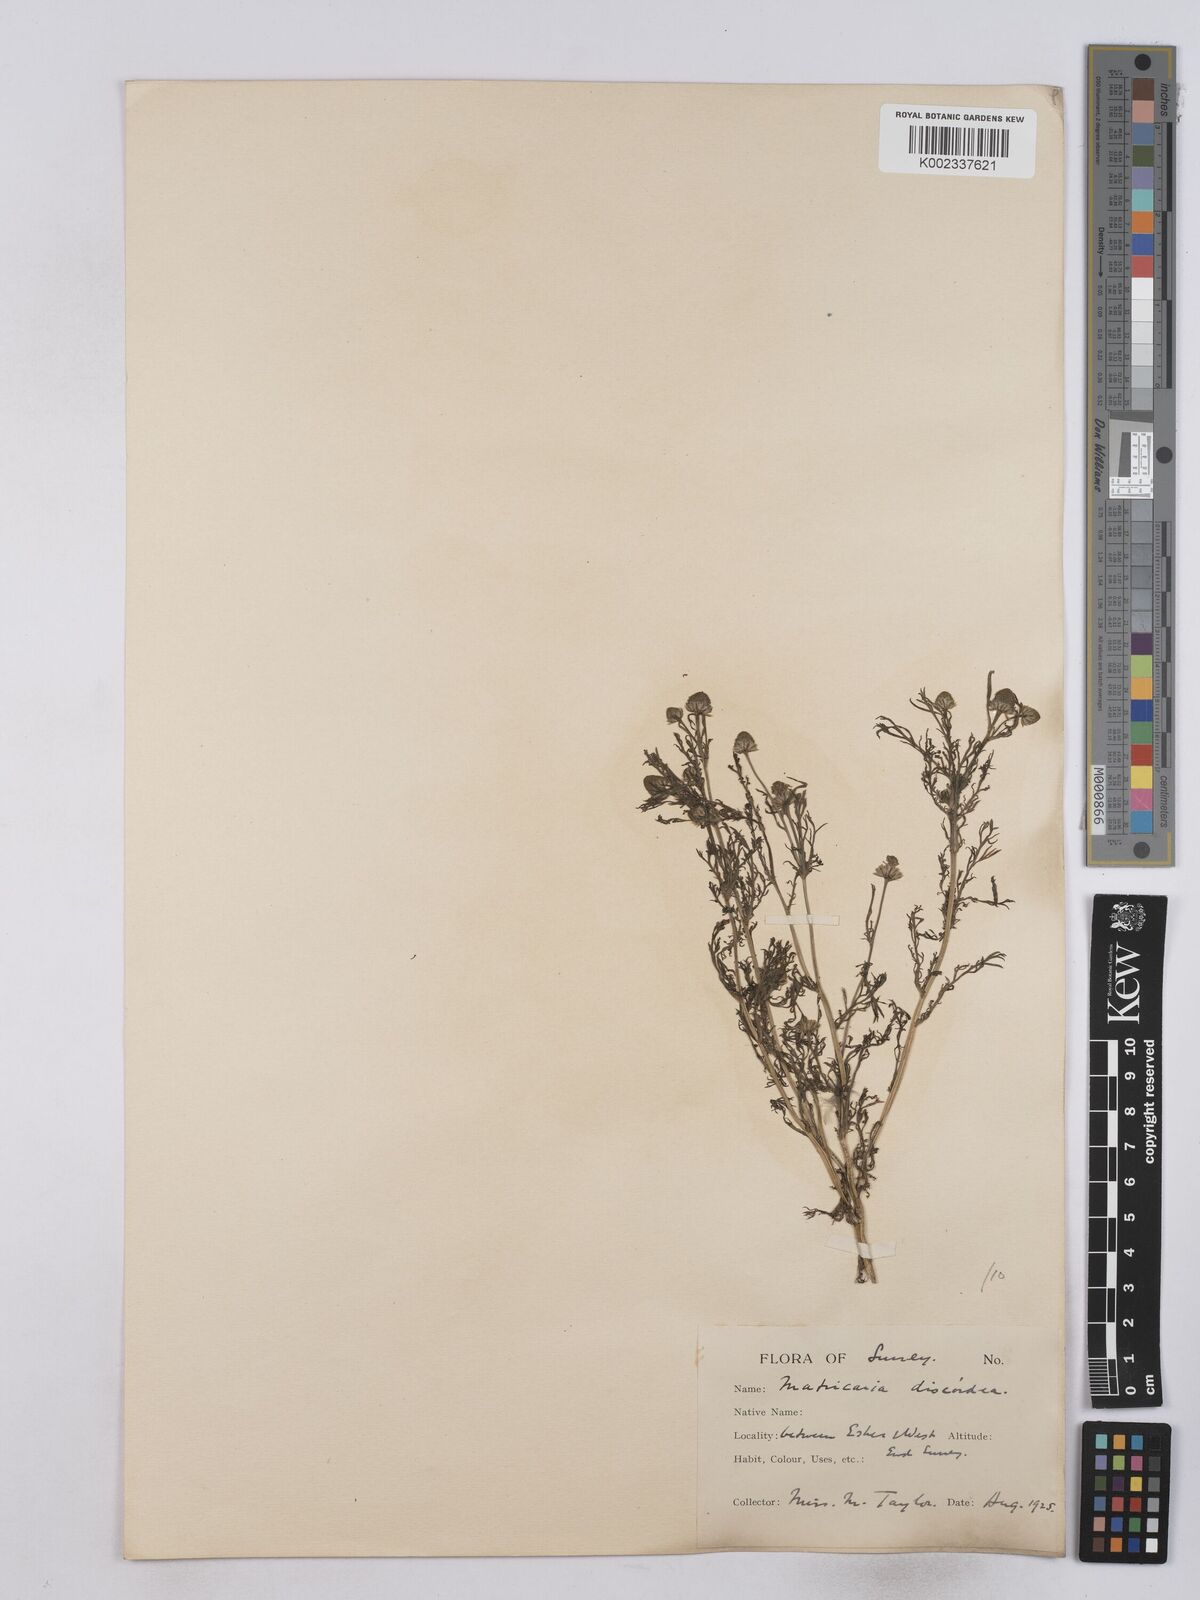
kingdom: Plantae
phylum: Tracheophyta
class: Magnoliopsida
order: Asterales
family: Asteraceae
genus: Matricaria
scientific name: Matricaria discoidea
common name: Disc mayweed
